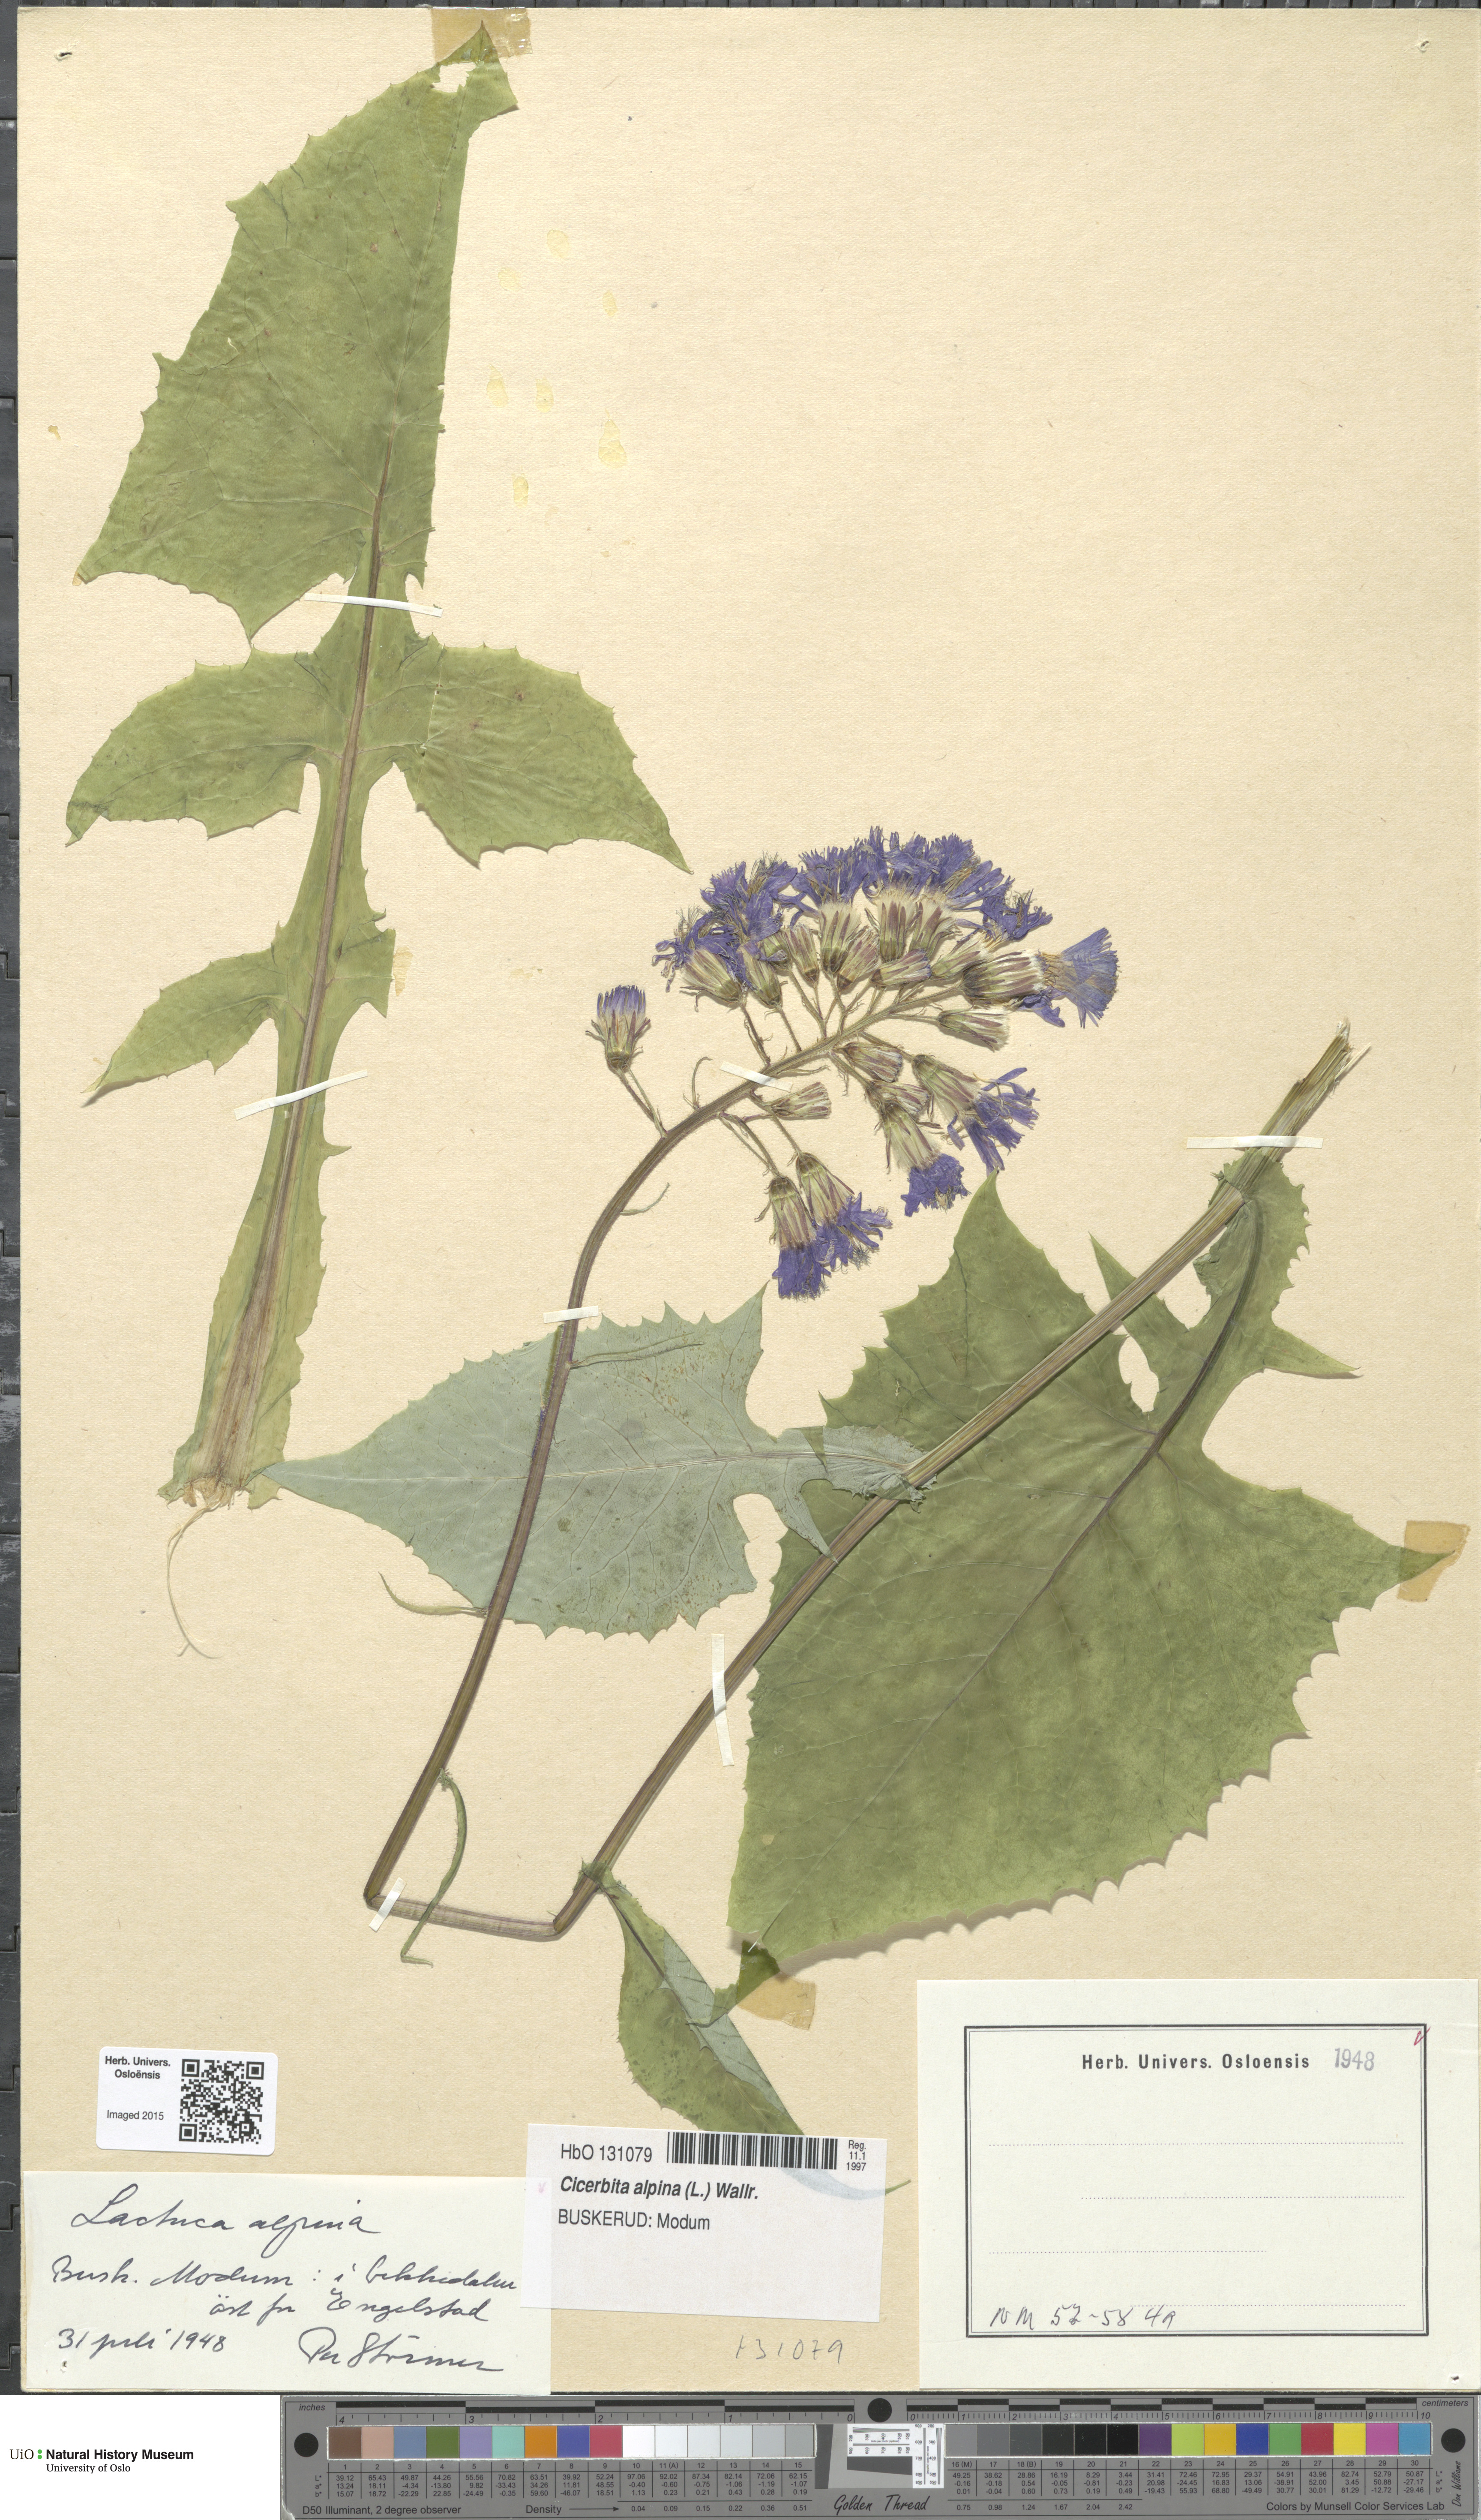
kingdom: Plantae
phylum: Tracheophyta
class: Magnoliopsida
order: Asterales
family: Asteraceae
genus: Cicerbita
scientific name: Cicerbita alpina
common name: Alpine blue-sow-thistle
